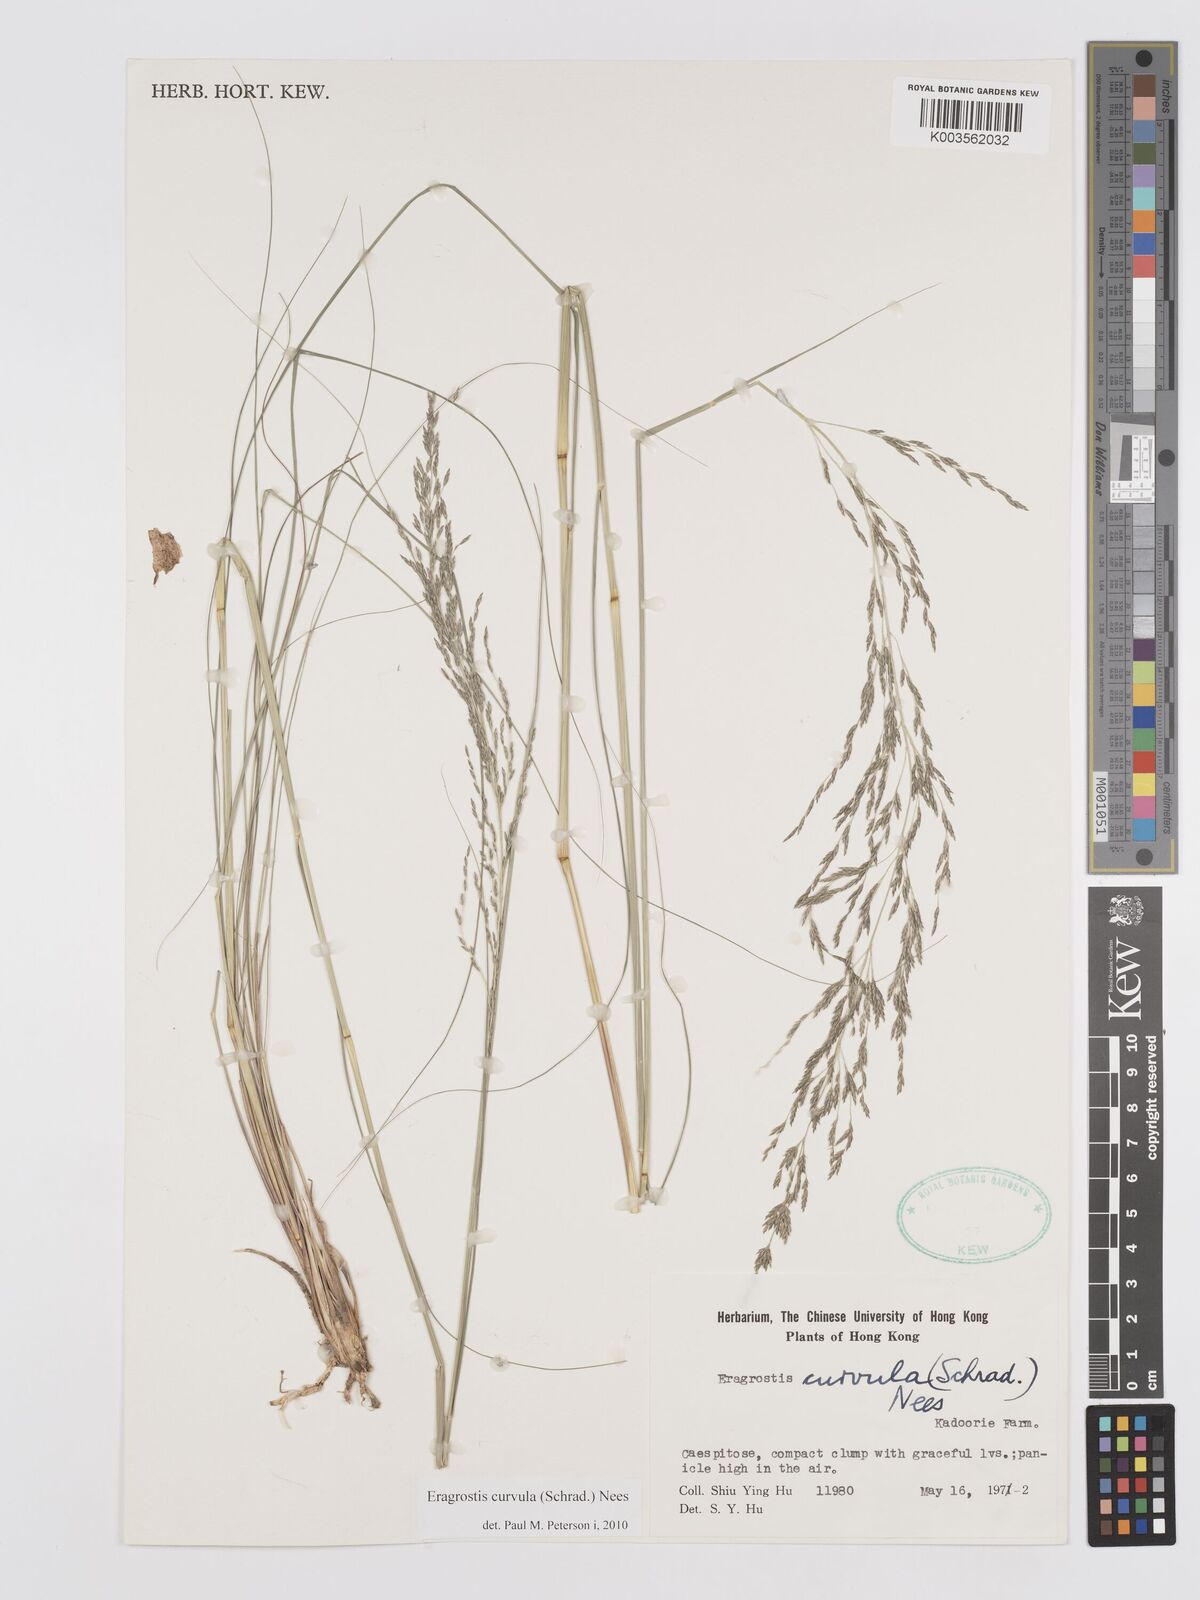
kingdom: Plantae
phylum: Tracheophyta
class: Liliopsida
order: Poales
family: Poaceae
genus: Eragrostis
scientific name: Eragrostis curvula
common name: African love-grass
